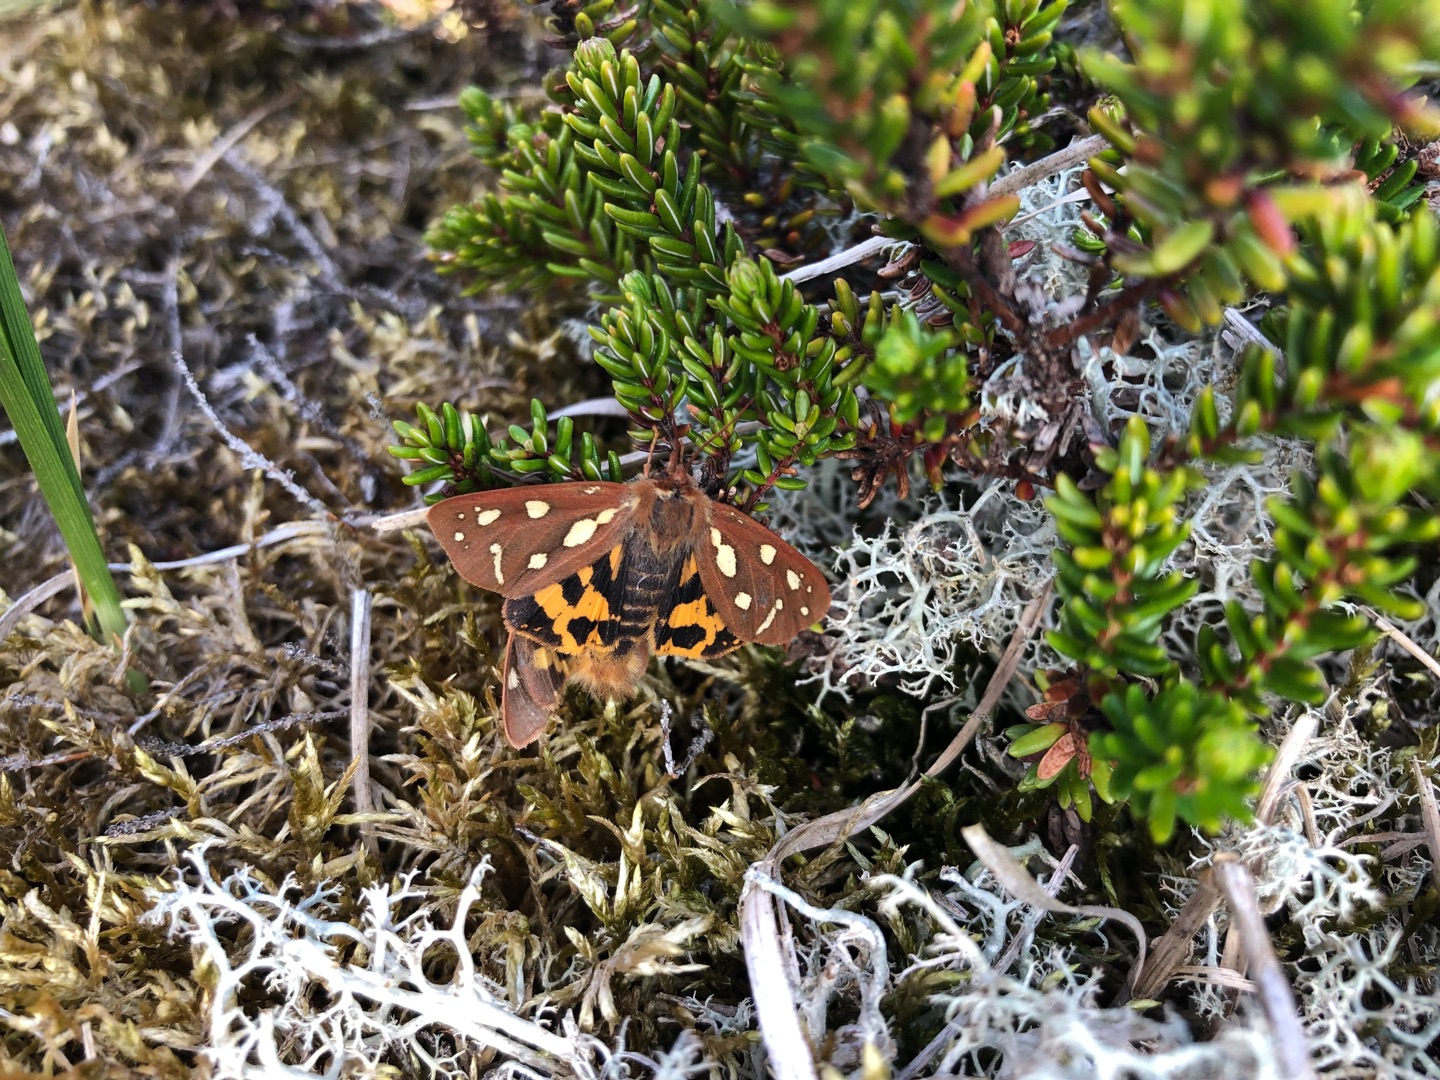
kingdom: Animalia
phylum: Arthropoda
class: Insecta
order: Lepidoptera
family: Erebidae
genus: Hyphoraia
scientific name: Hyphoraia aulica
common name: Gulplettet bjørn
